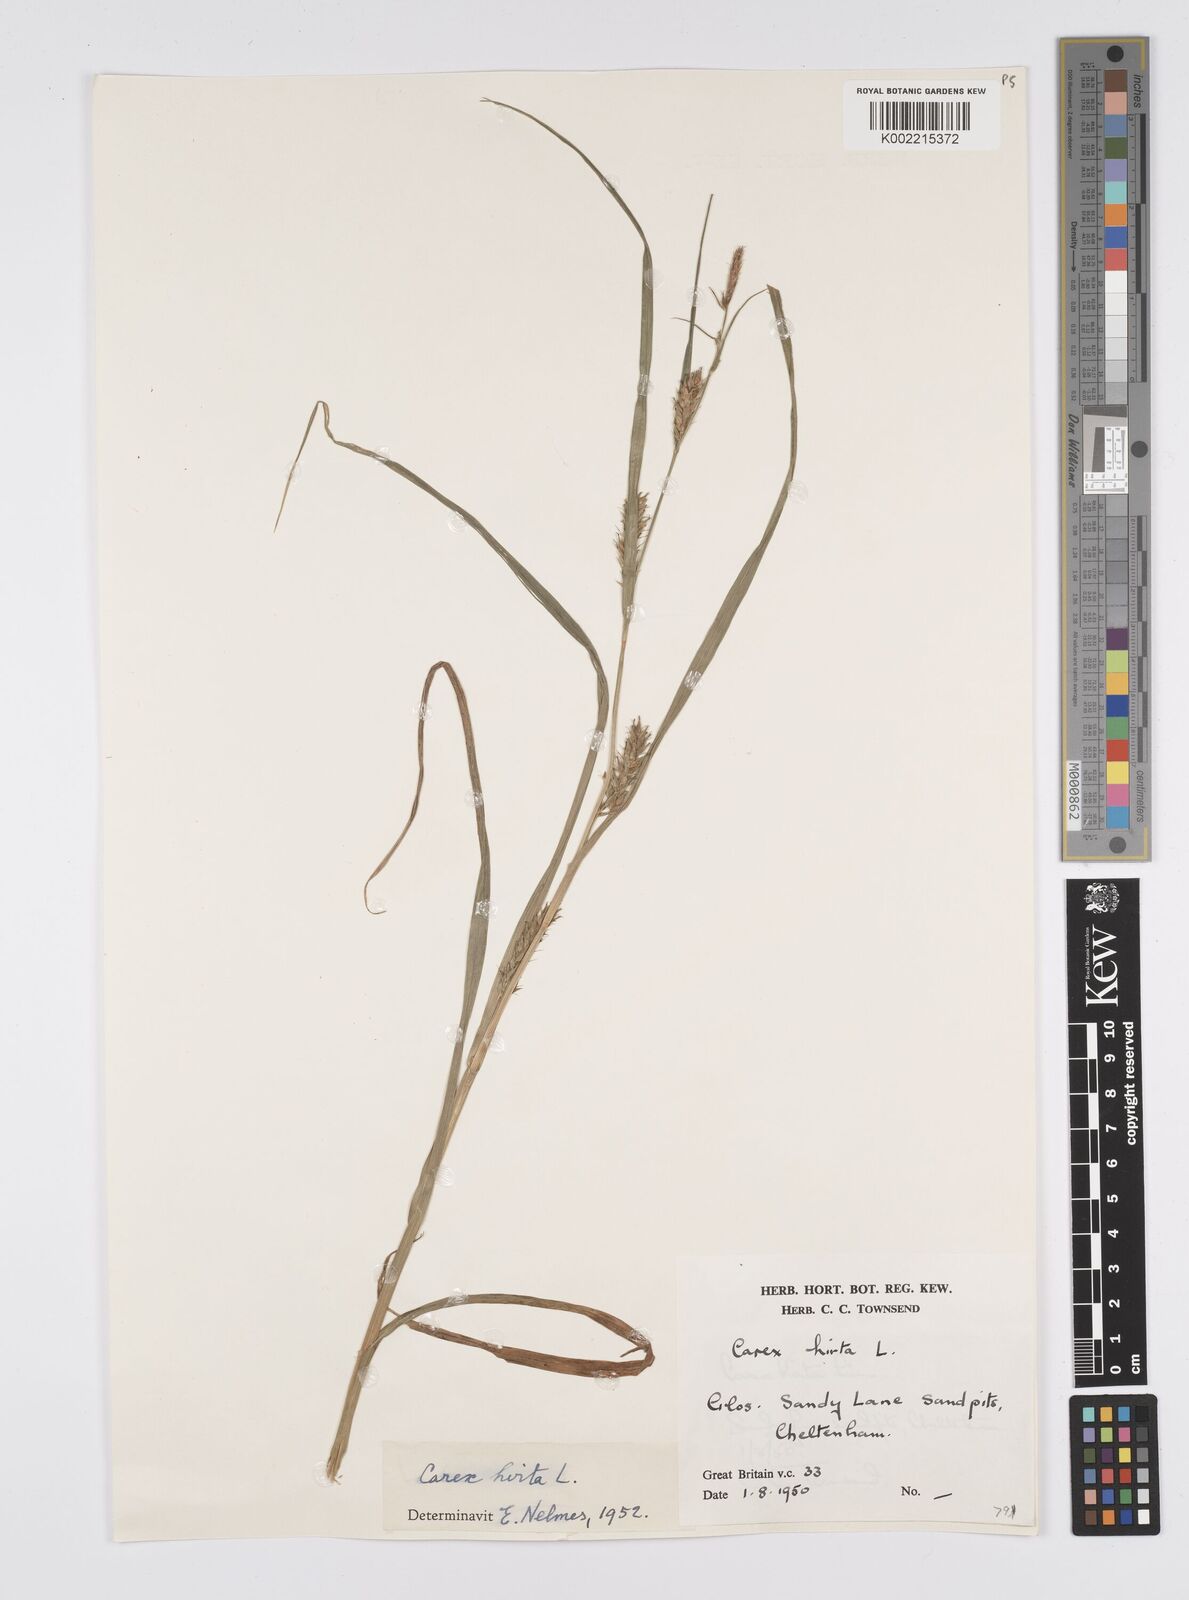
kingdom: Plantae
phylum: Tracheophyta
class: Liliopsida
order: Poales
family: Cyperaceae
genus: Carex
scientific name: Carex hirta
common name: Hairy sedge
